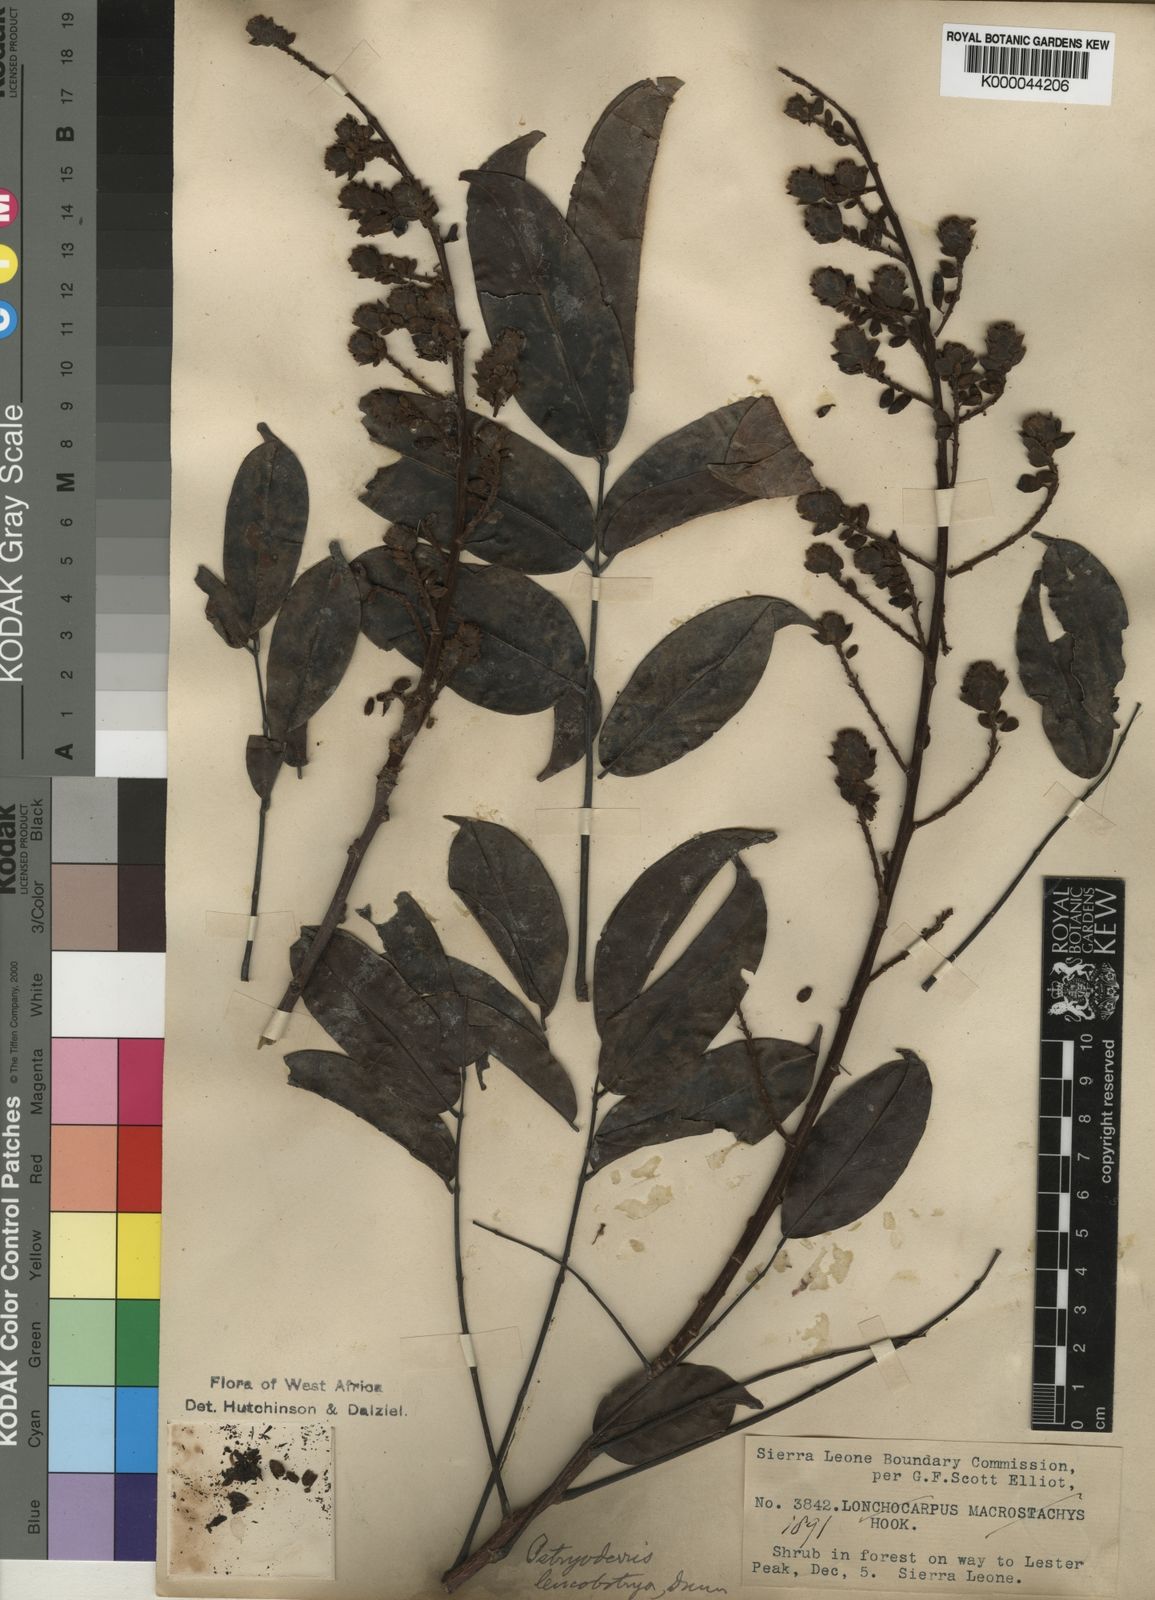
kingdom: Plantae
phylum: Tracheophyta
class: Magnoliopsida
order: Fabales
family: Fabaceae
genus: Aganope
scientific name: Aganope leucobotrya
